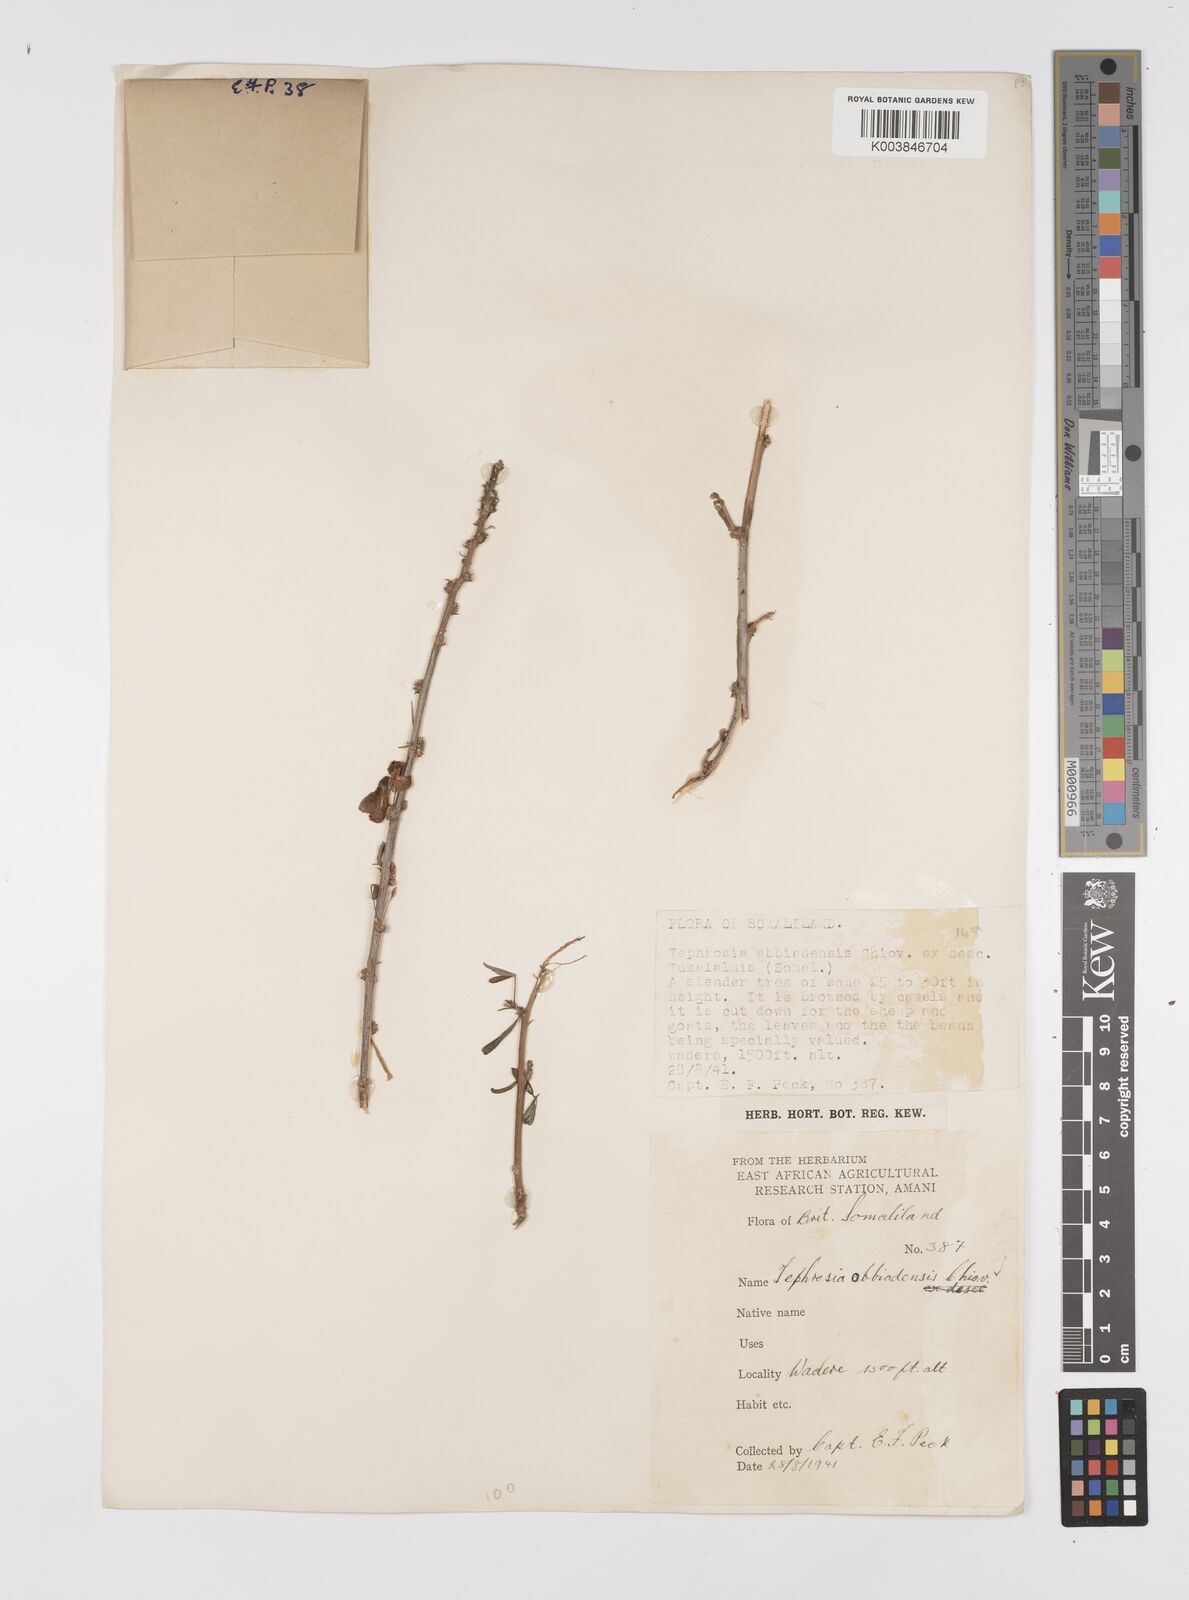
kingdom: Plantae
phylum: Tracheophyta
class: Magnoliopsida
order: Fabales
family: Fabaceae
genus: Tephrosia
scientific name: Tephrosia obbiadensis
